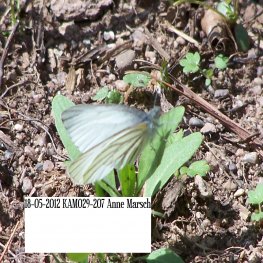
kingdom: Animalia
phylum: Arthropoda
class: Insecta
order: Lepidoptera
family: Pieridae
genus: Pieris
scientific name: Pieris oleracea
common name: Mustard White
